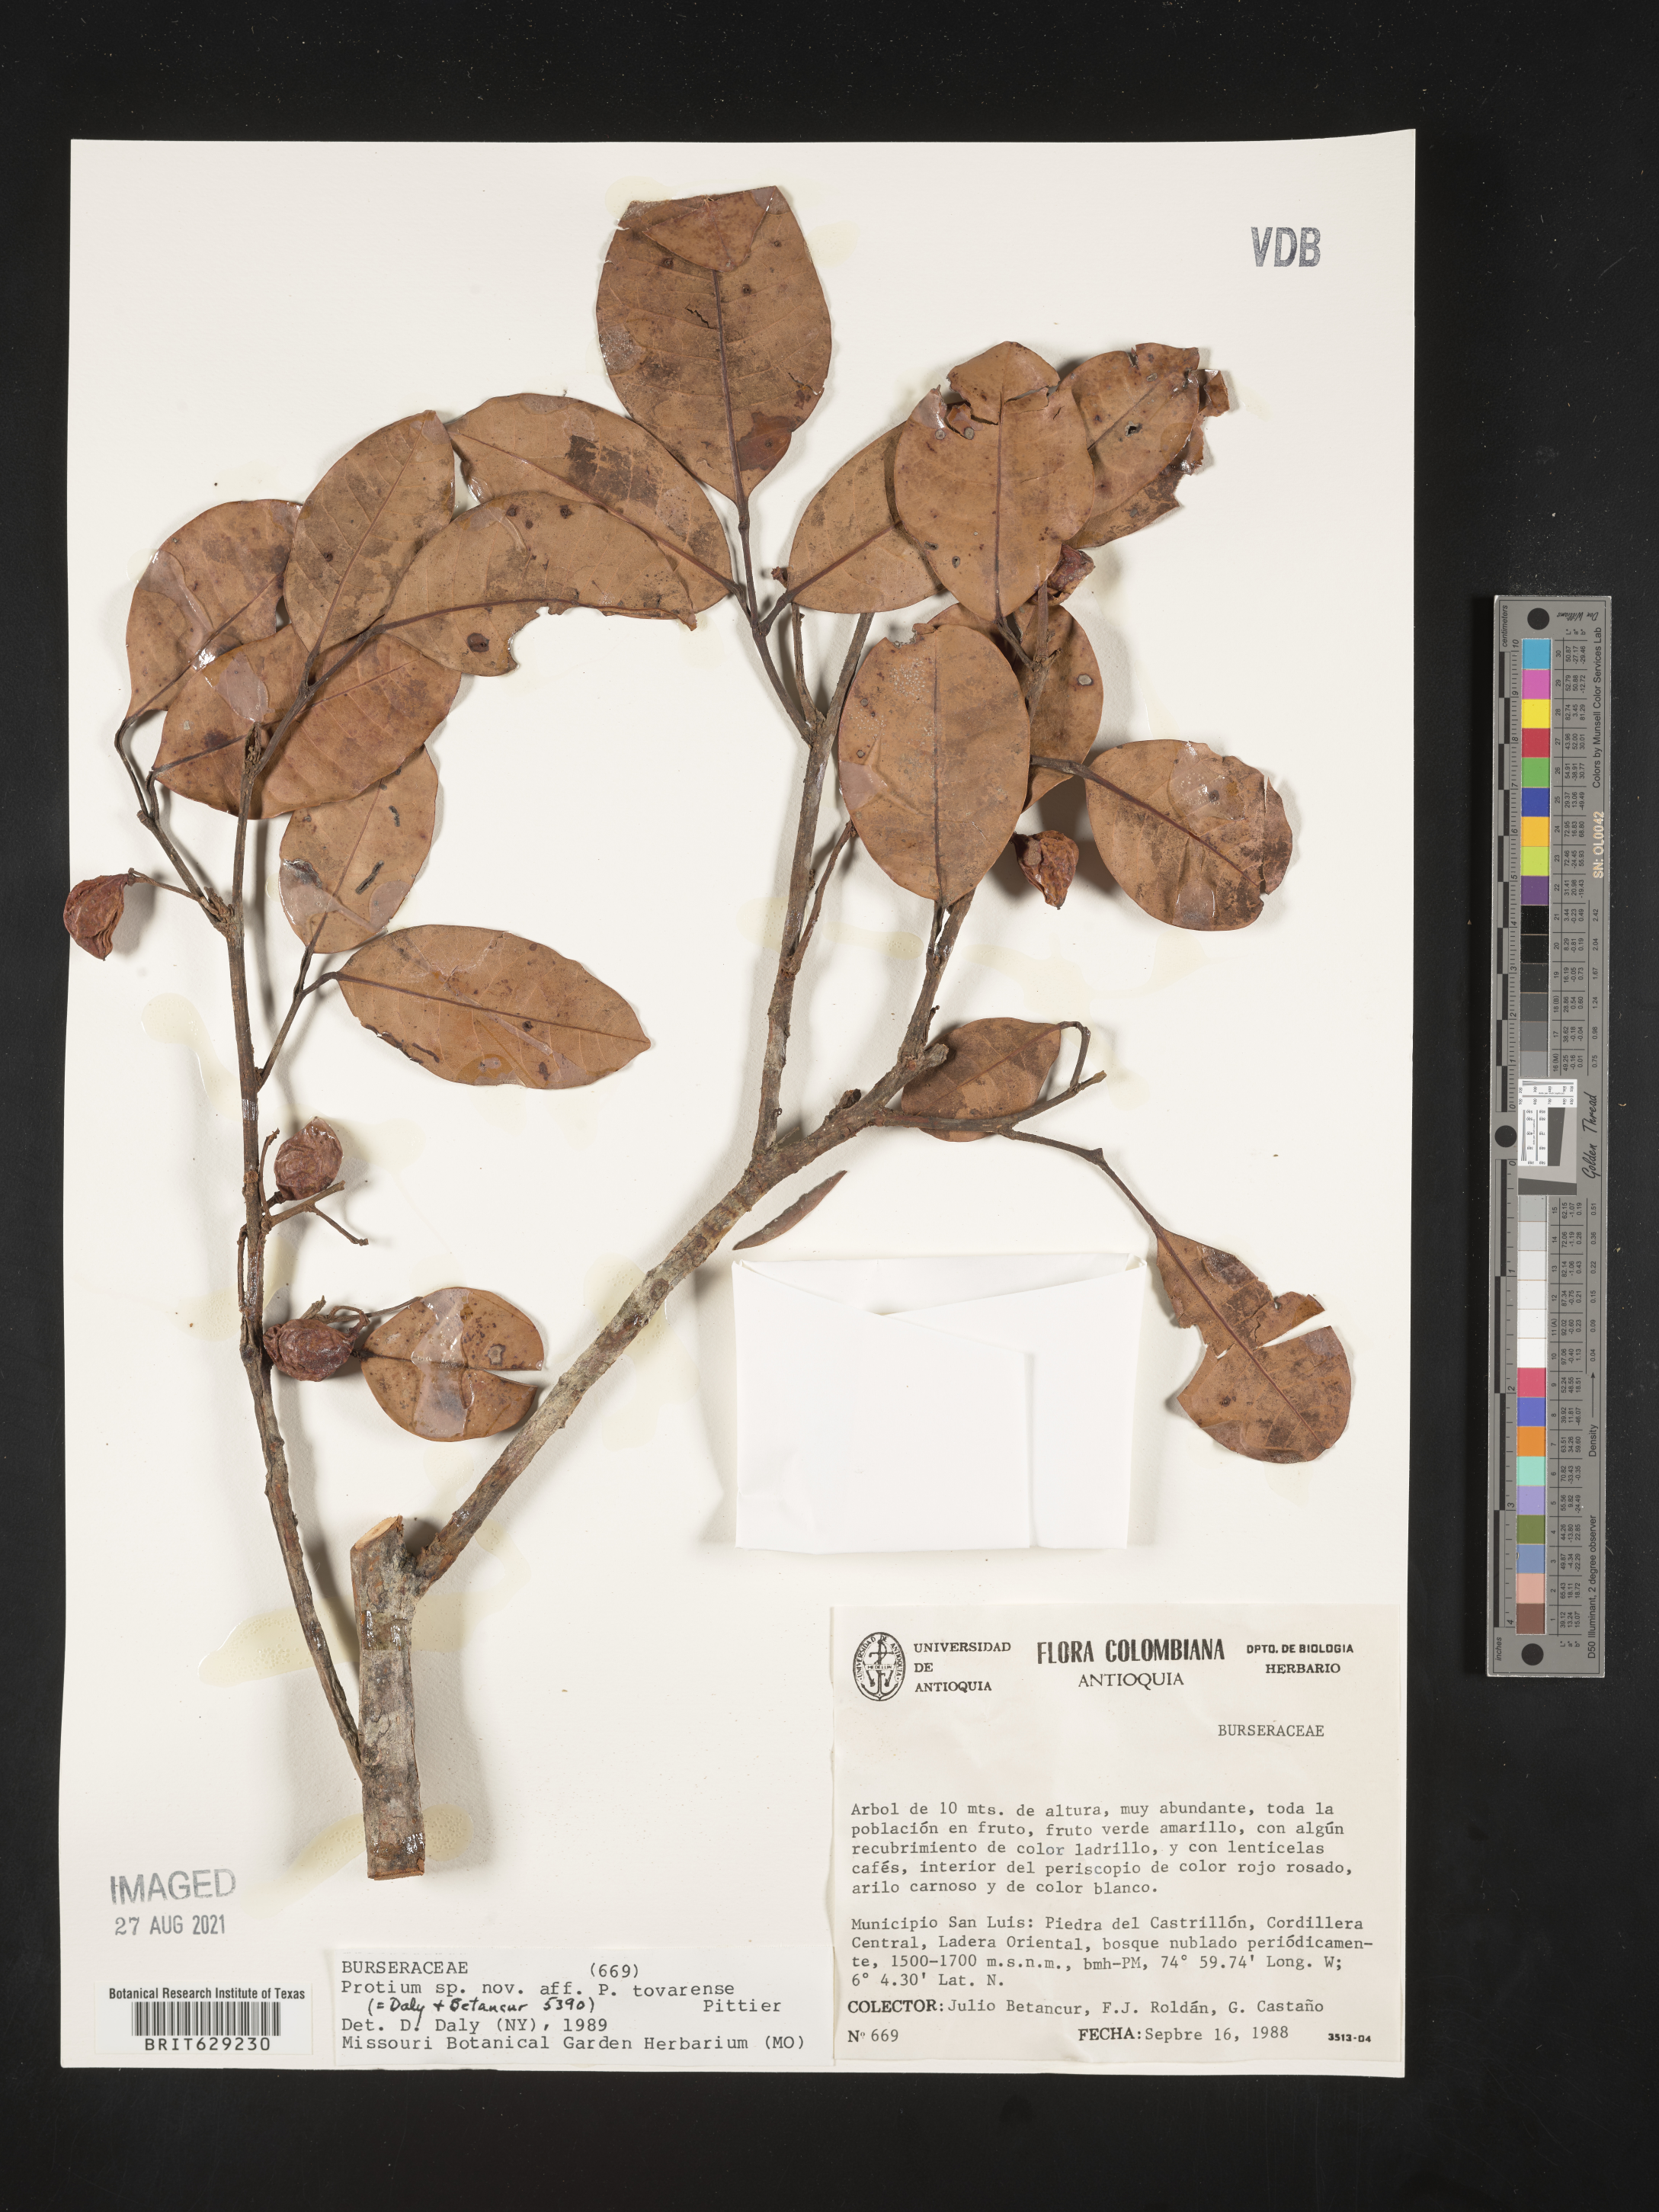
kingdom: Plantae
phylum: Tracheophyta
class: Magnoliopsida
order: Sapindales
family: Burseraceae
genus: Protium
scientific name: Protium tovarense
